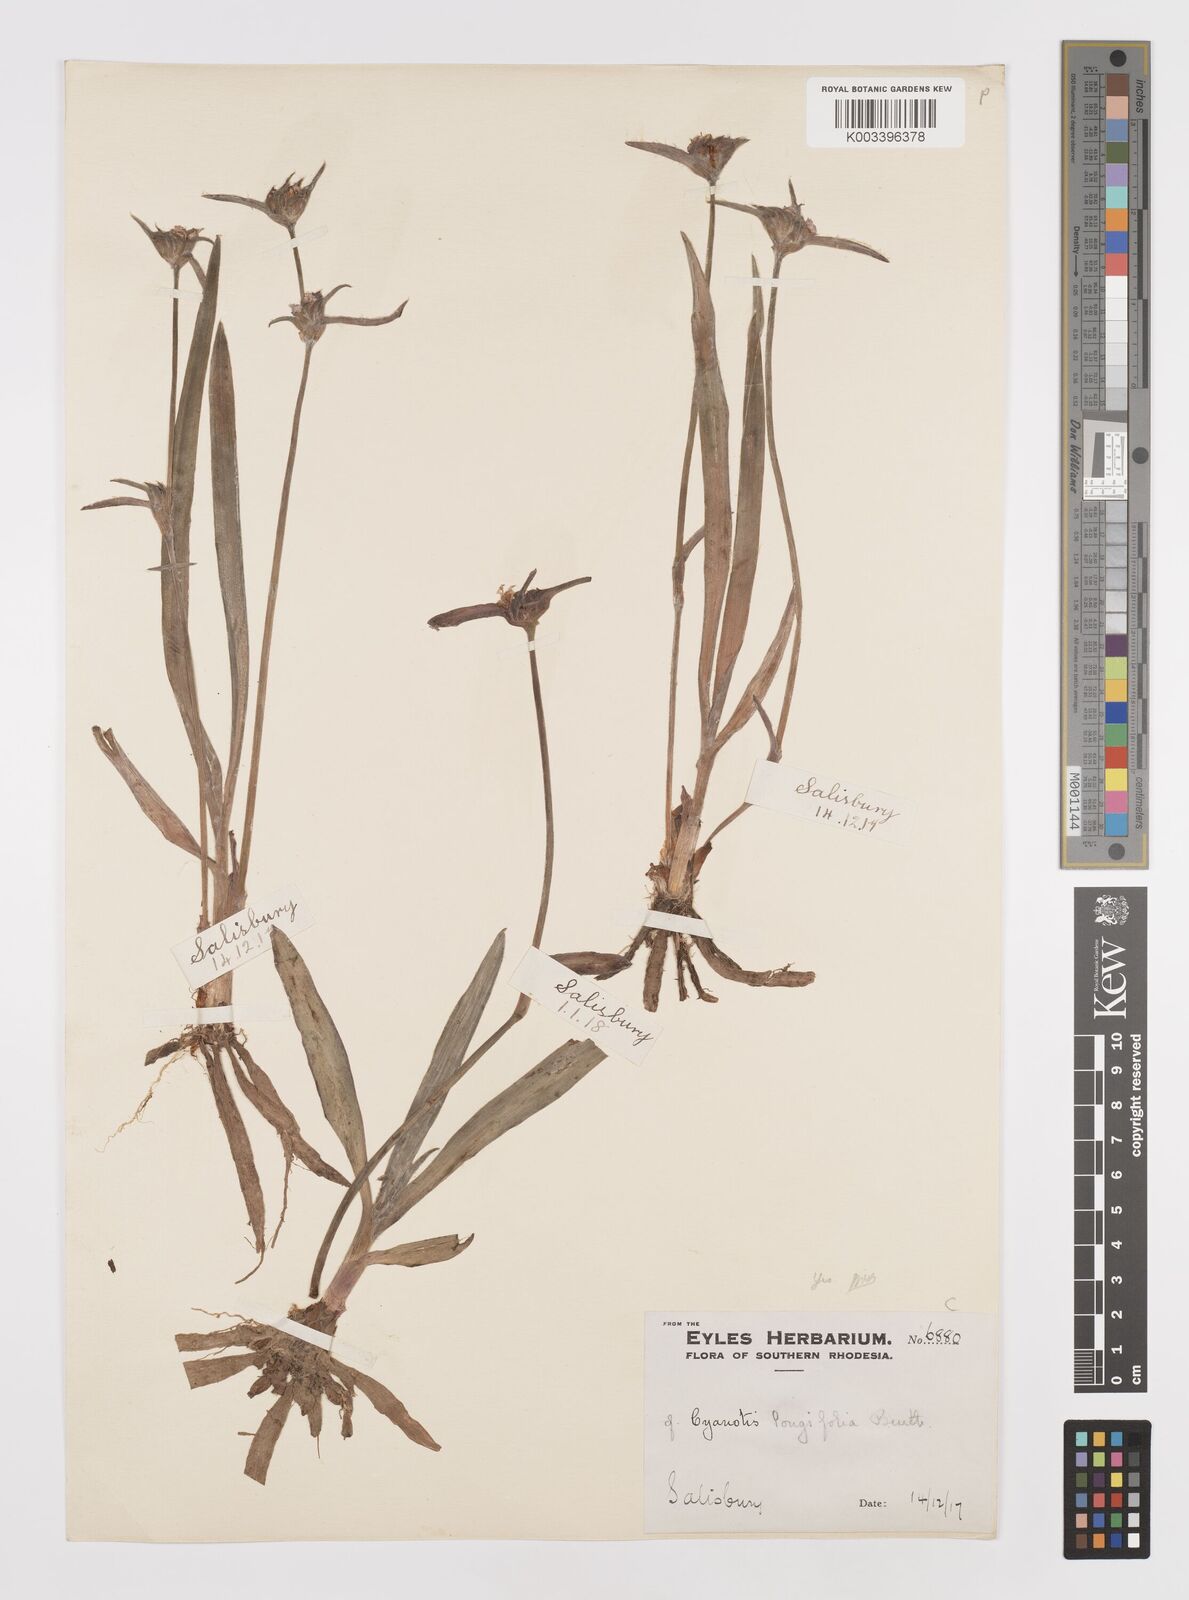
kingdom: Plantae
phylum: Tracheophyta
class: Liliopsida
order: Commelinales
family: Commelinaceae
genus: Cyanotis
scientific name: Cyanotis longifolia
